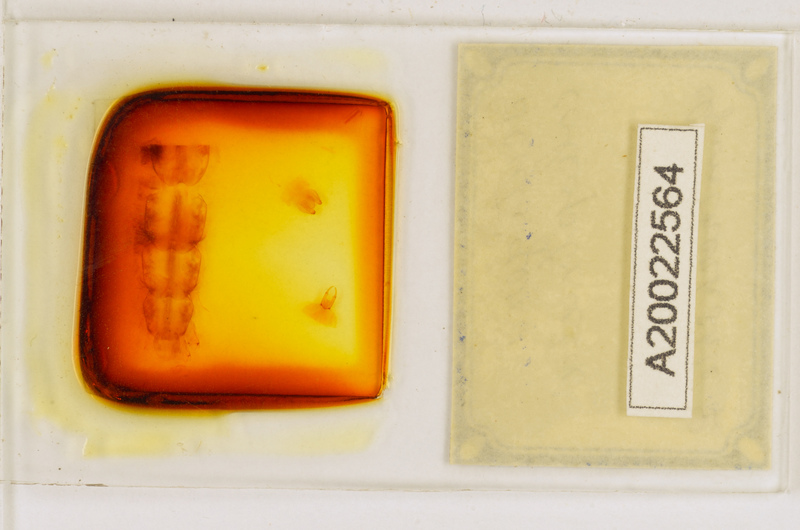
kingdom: Animalia
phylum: Arthropoda
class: Chilopoda
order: Scutigeromorpha
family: Scutigeridae
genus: Scutigera
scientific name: Scutigera coleoptrata
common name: House centipede
